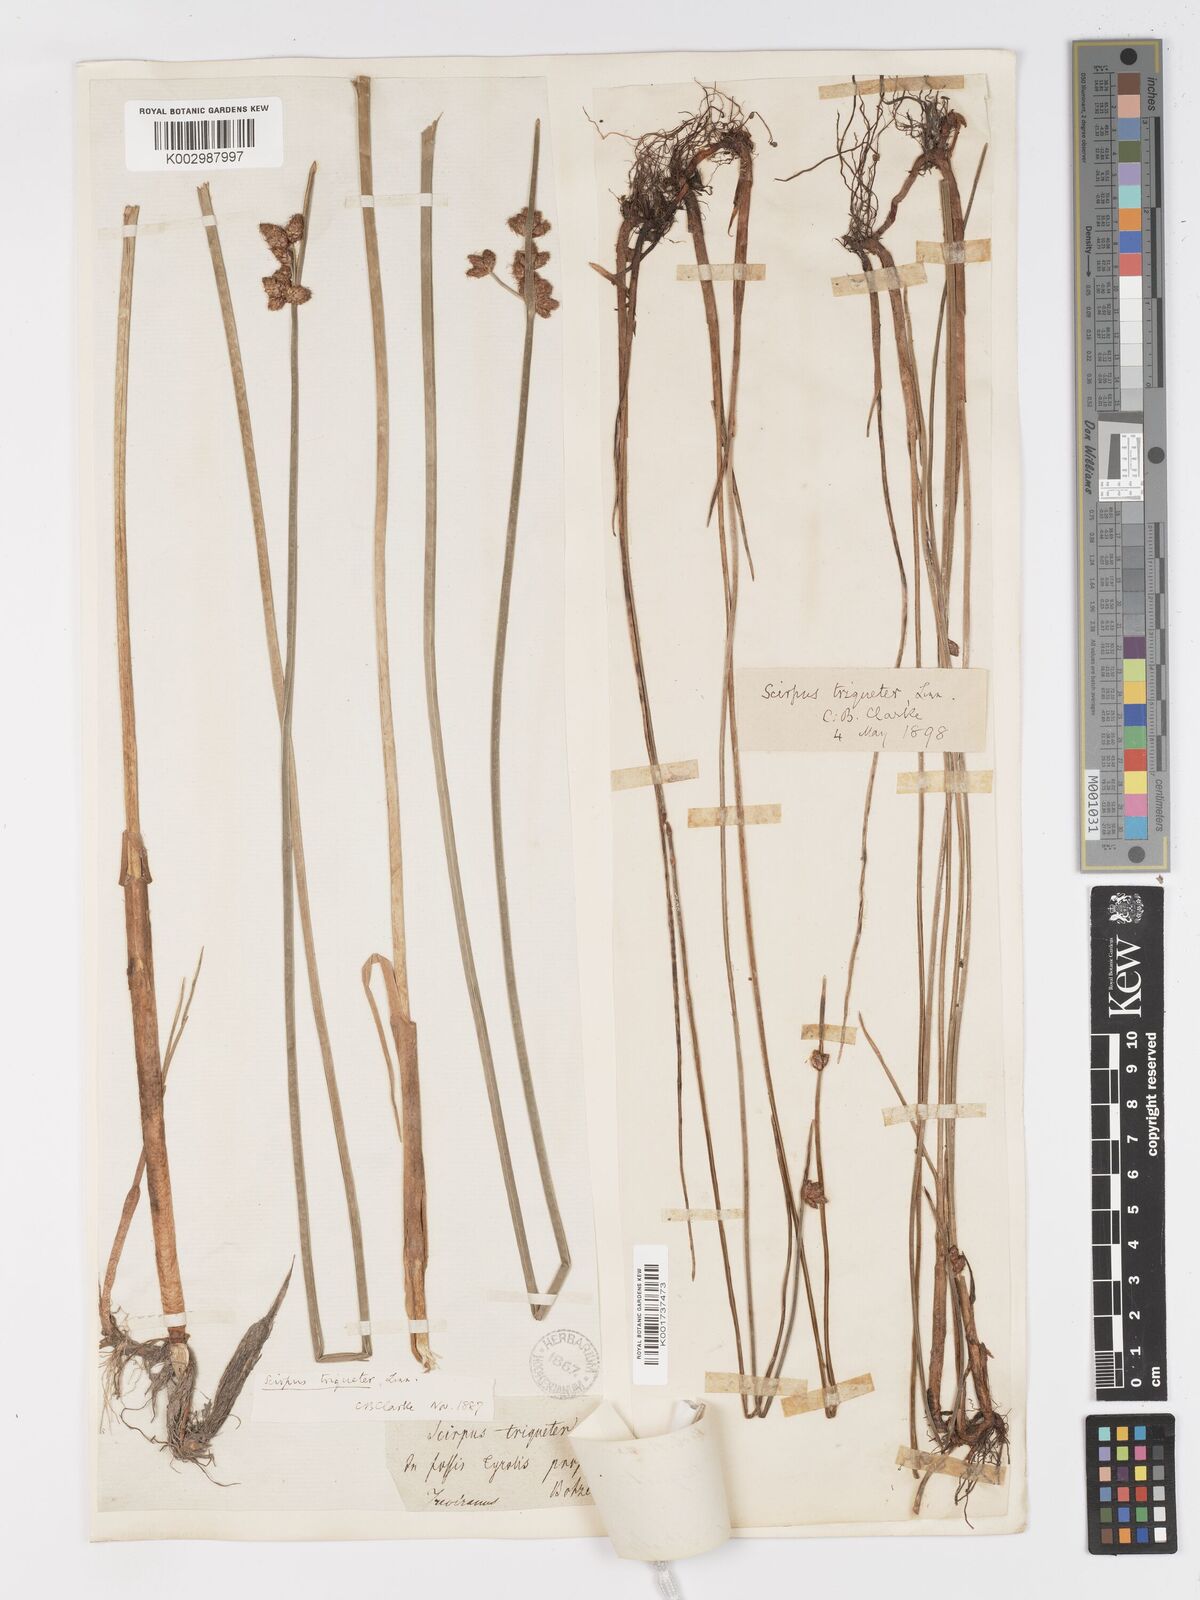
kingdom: Plantae
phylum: Tracheophyta
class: Liliopsida
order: Poales
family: Cyperaceae
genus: Schoenoplectus
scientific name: Schoenoplectus triqueter
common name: Triangular club-rush
